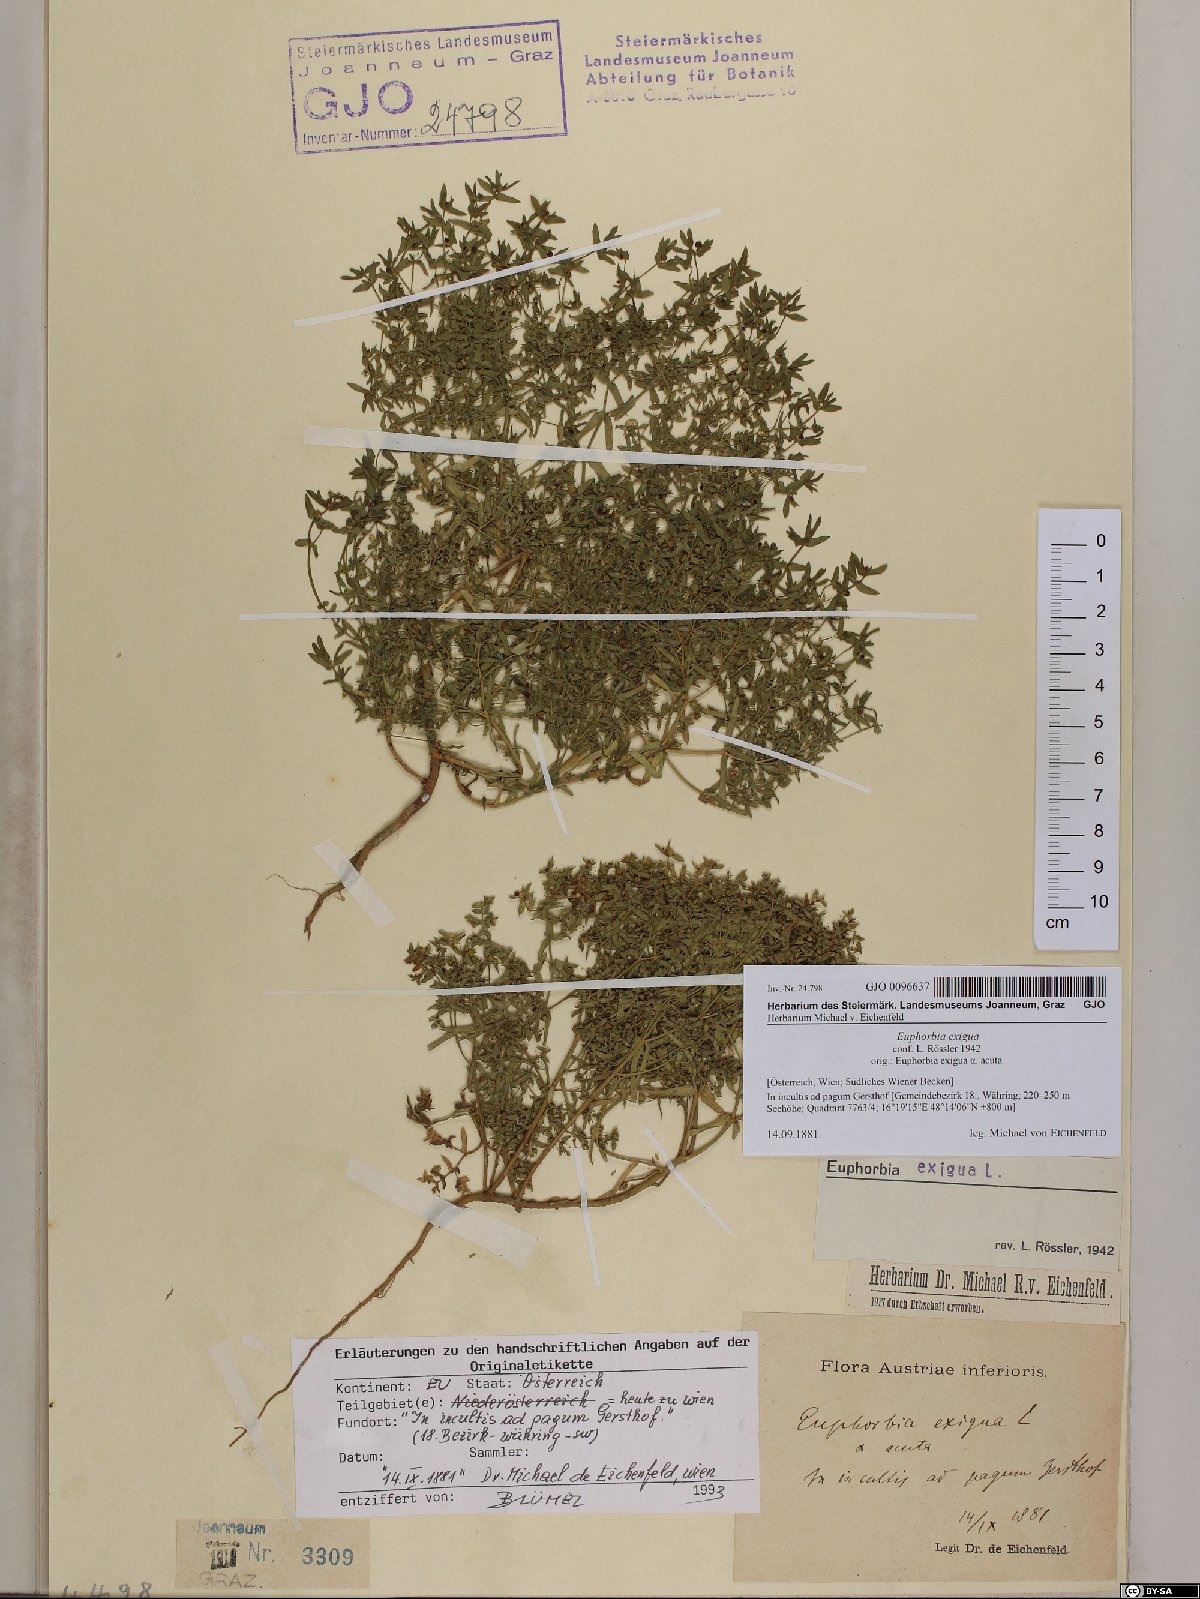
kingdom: Plantae
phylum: Tracheophyta
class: Magnoliopsida
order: Malpighiales
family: Euphorbiaceae
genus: Euphorbia
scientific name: Euphorbia exigua
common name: Dwarf spurge
